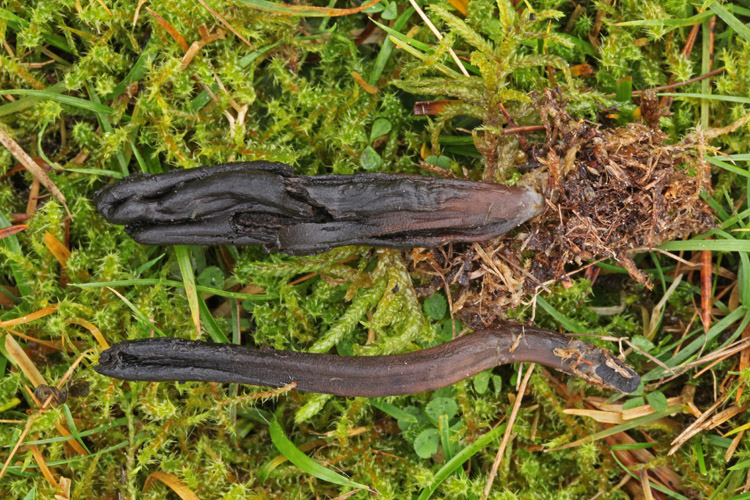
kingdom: Fungi
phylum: Ascomycota
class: Geoglossomycetes
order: Geoglossales
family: Geoglossaceae
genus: Geoglossum
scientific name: Geoglossum fallax
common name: småskællet jordtunge
